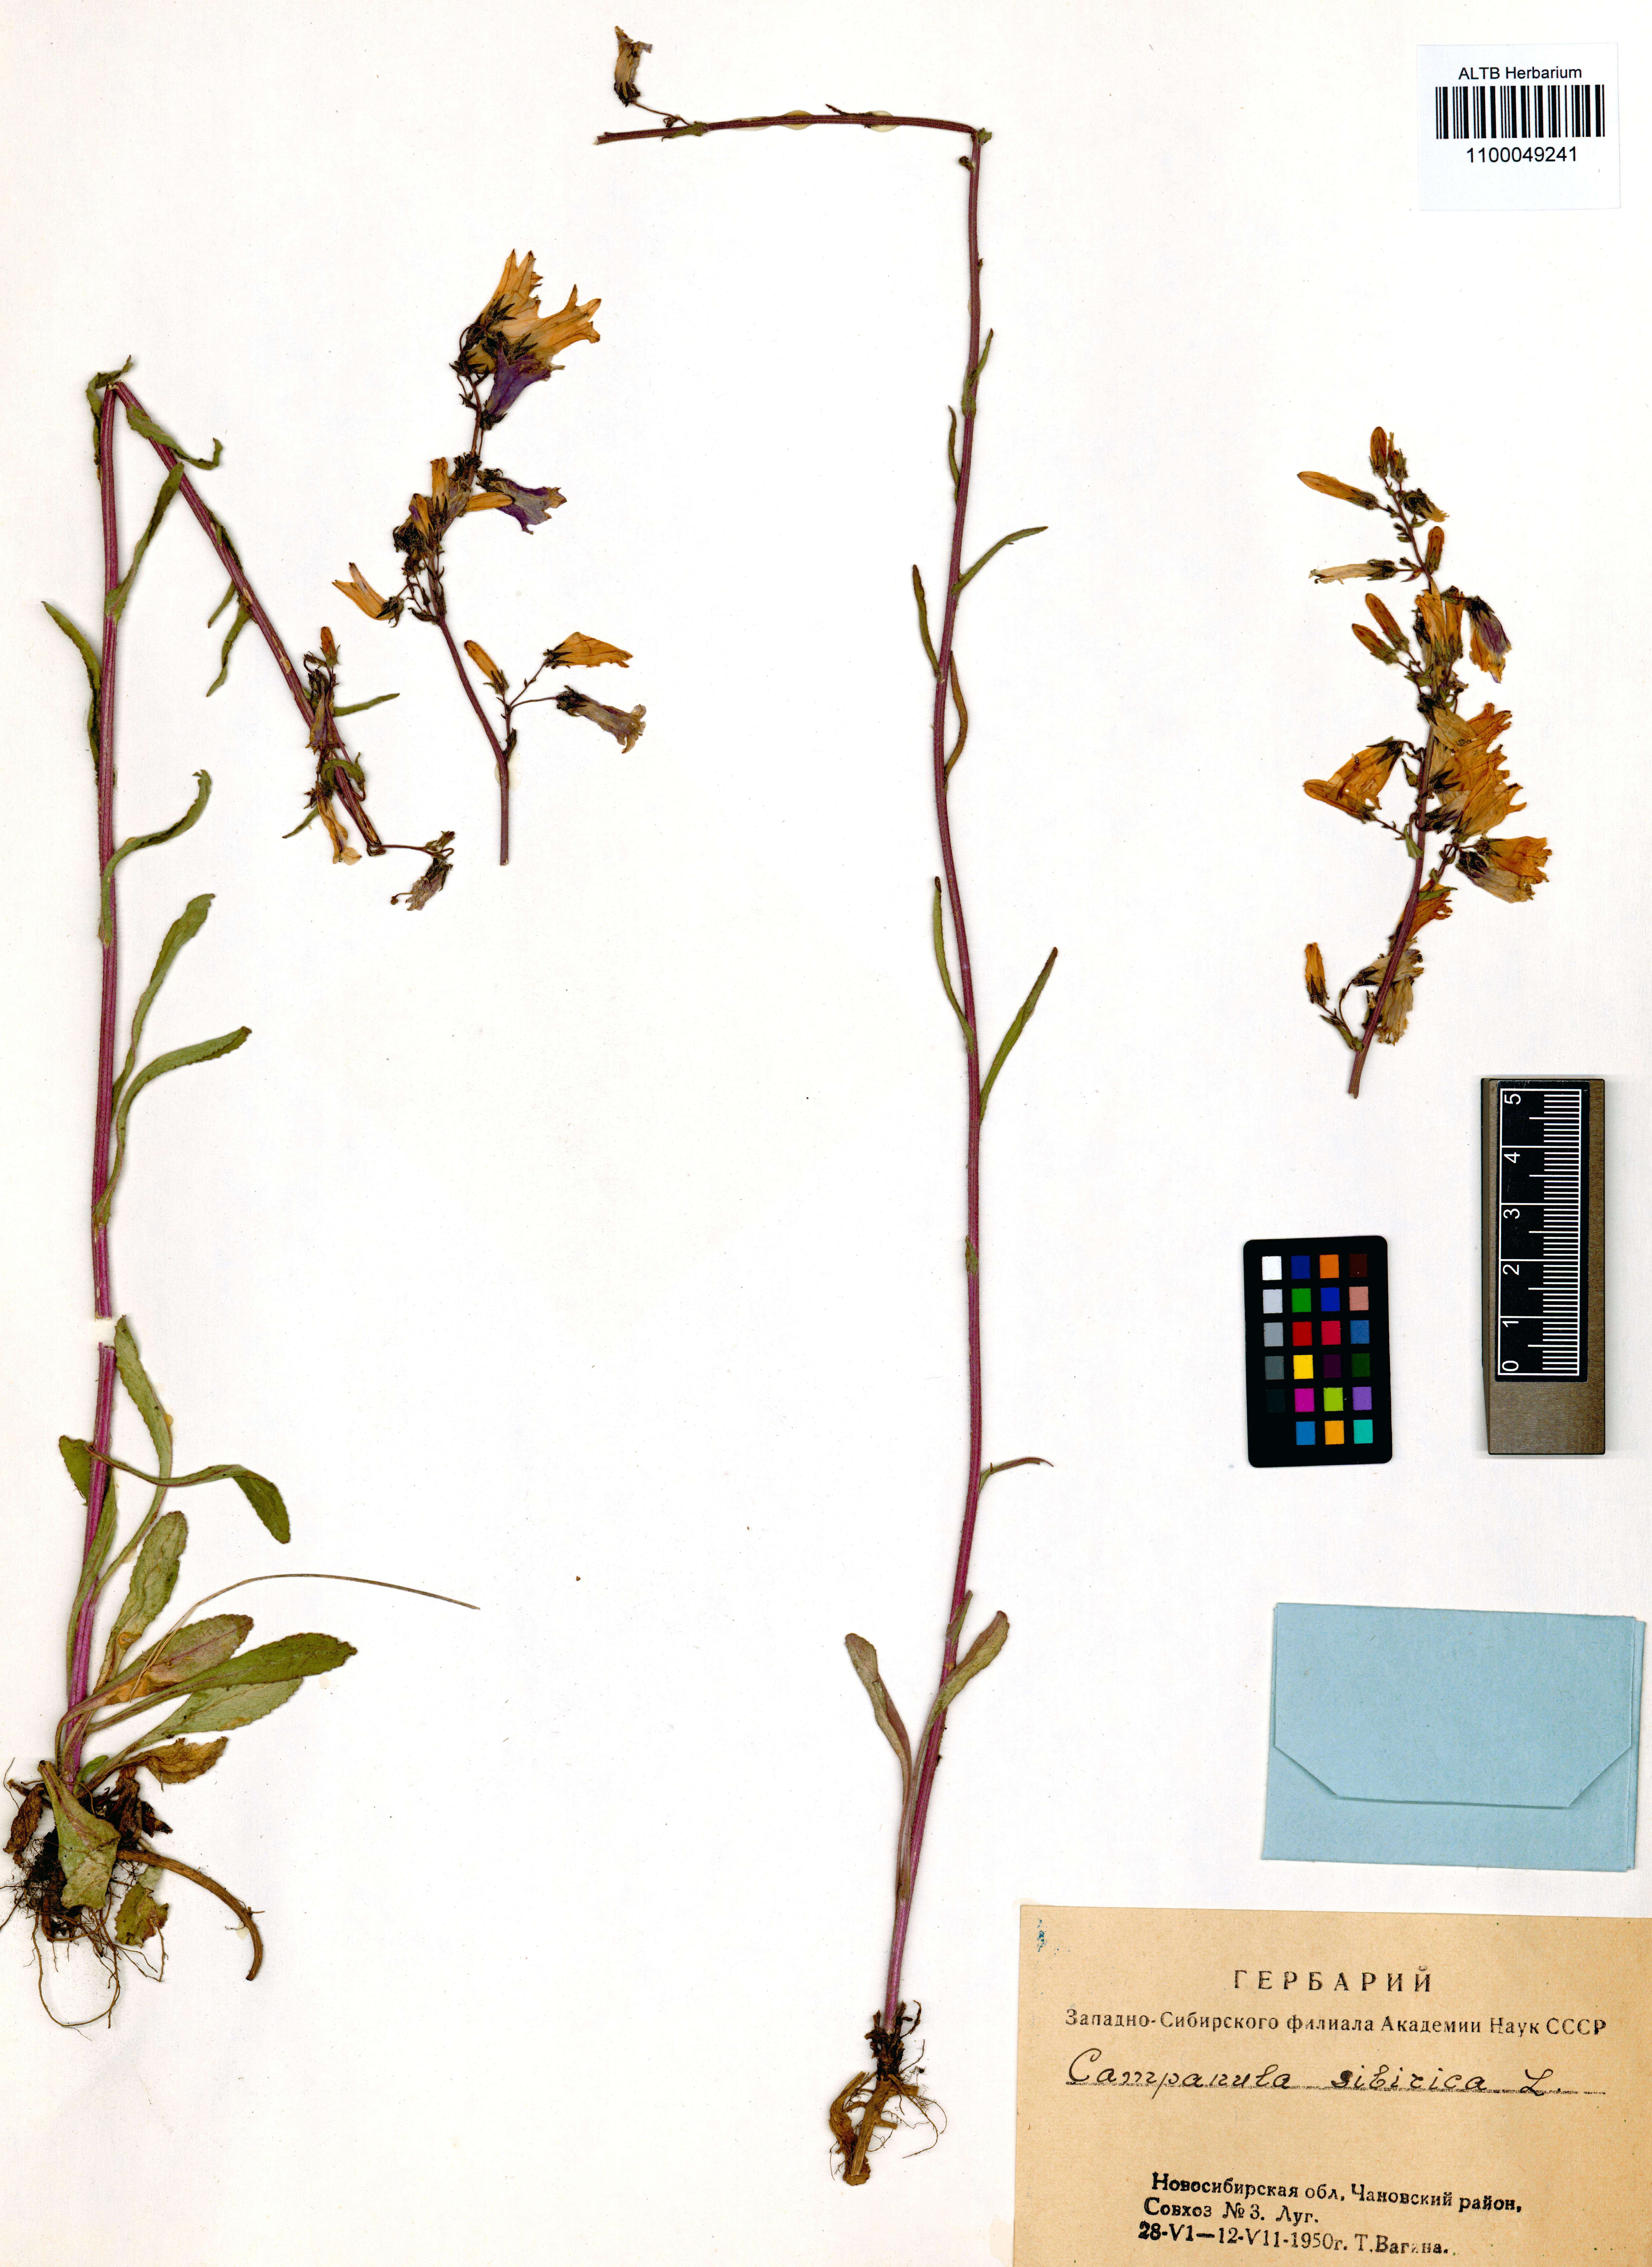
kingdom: Plantae
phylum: Tracheophyta
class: Magnoliopsida
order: Asterales
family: Campanulaceae
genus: Campanula
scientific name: Campanula sibirica
